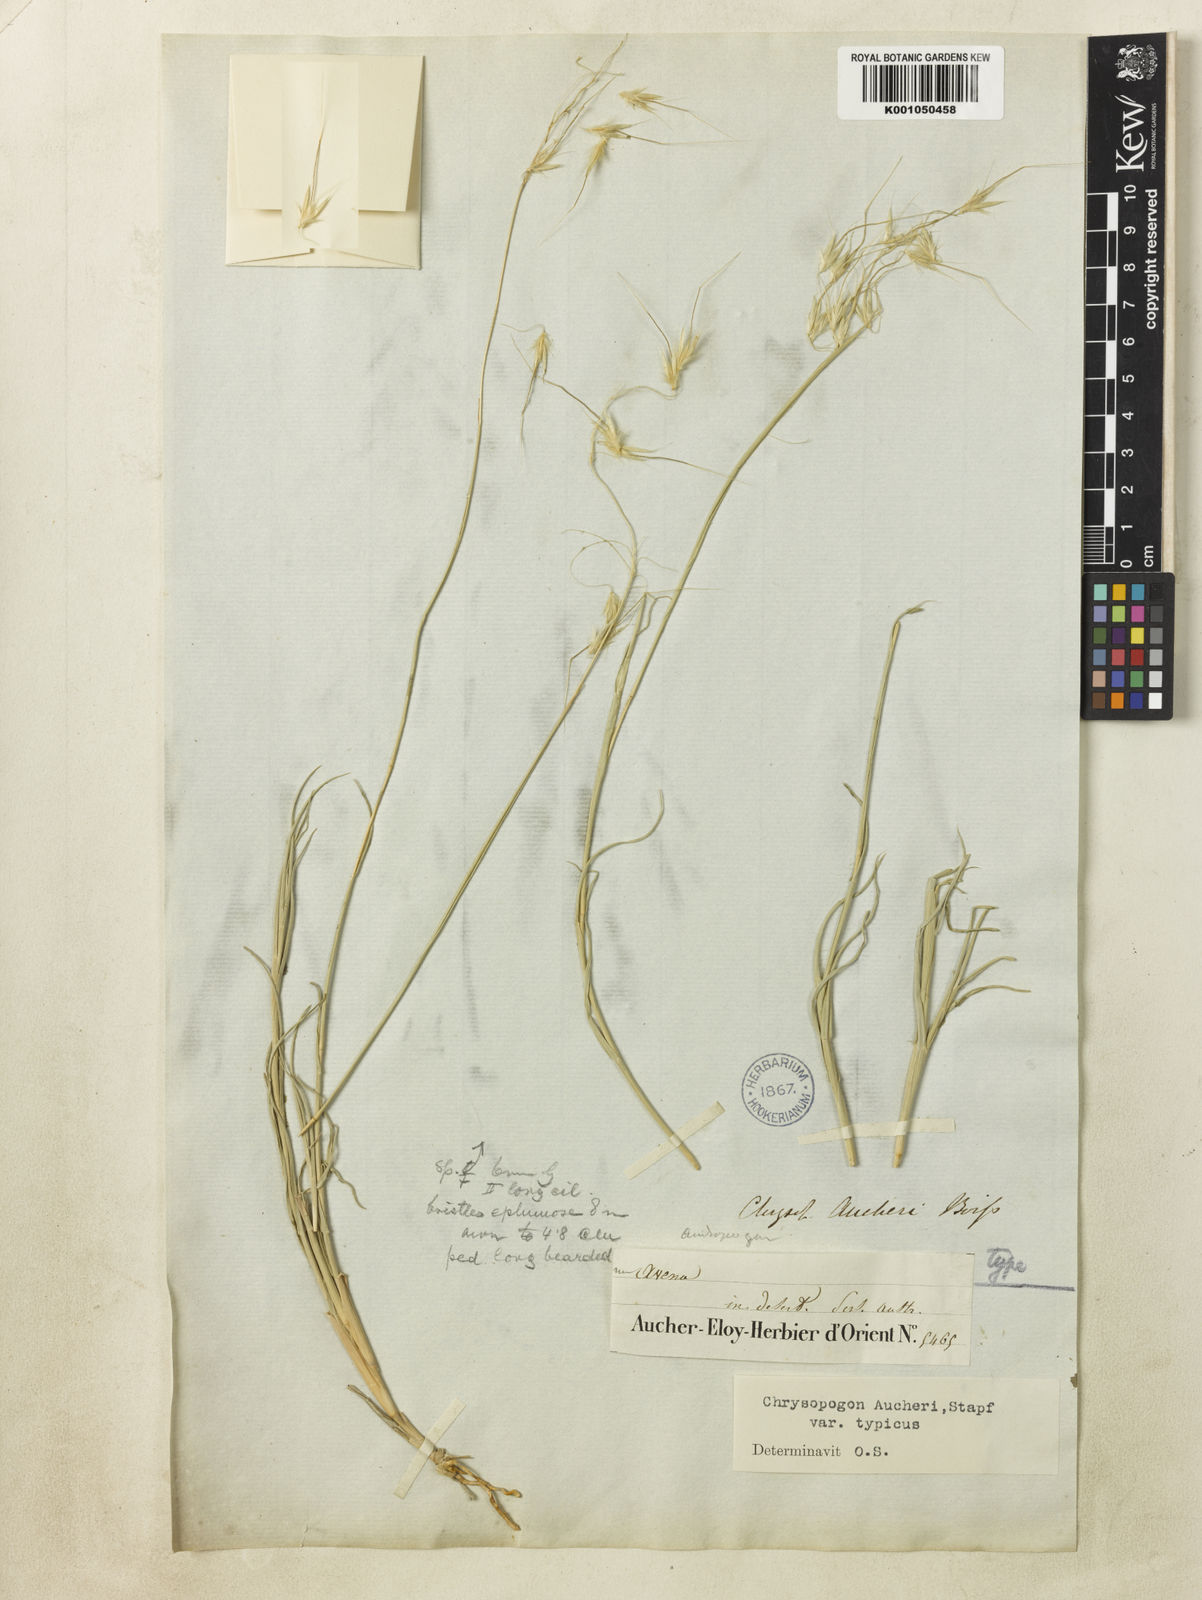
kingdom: Plantae
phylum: Tracheophyta
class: Liliopsida
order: Poales
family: Poaceae
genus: Chrysopogon
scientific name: Chrysopogon aucheri
